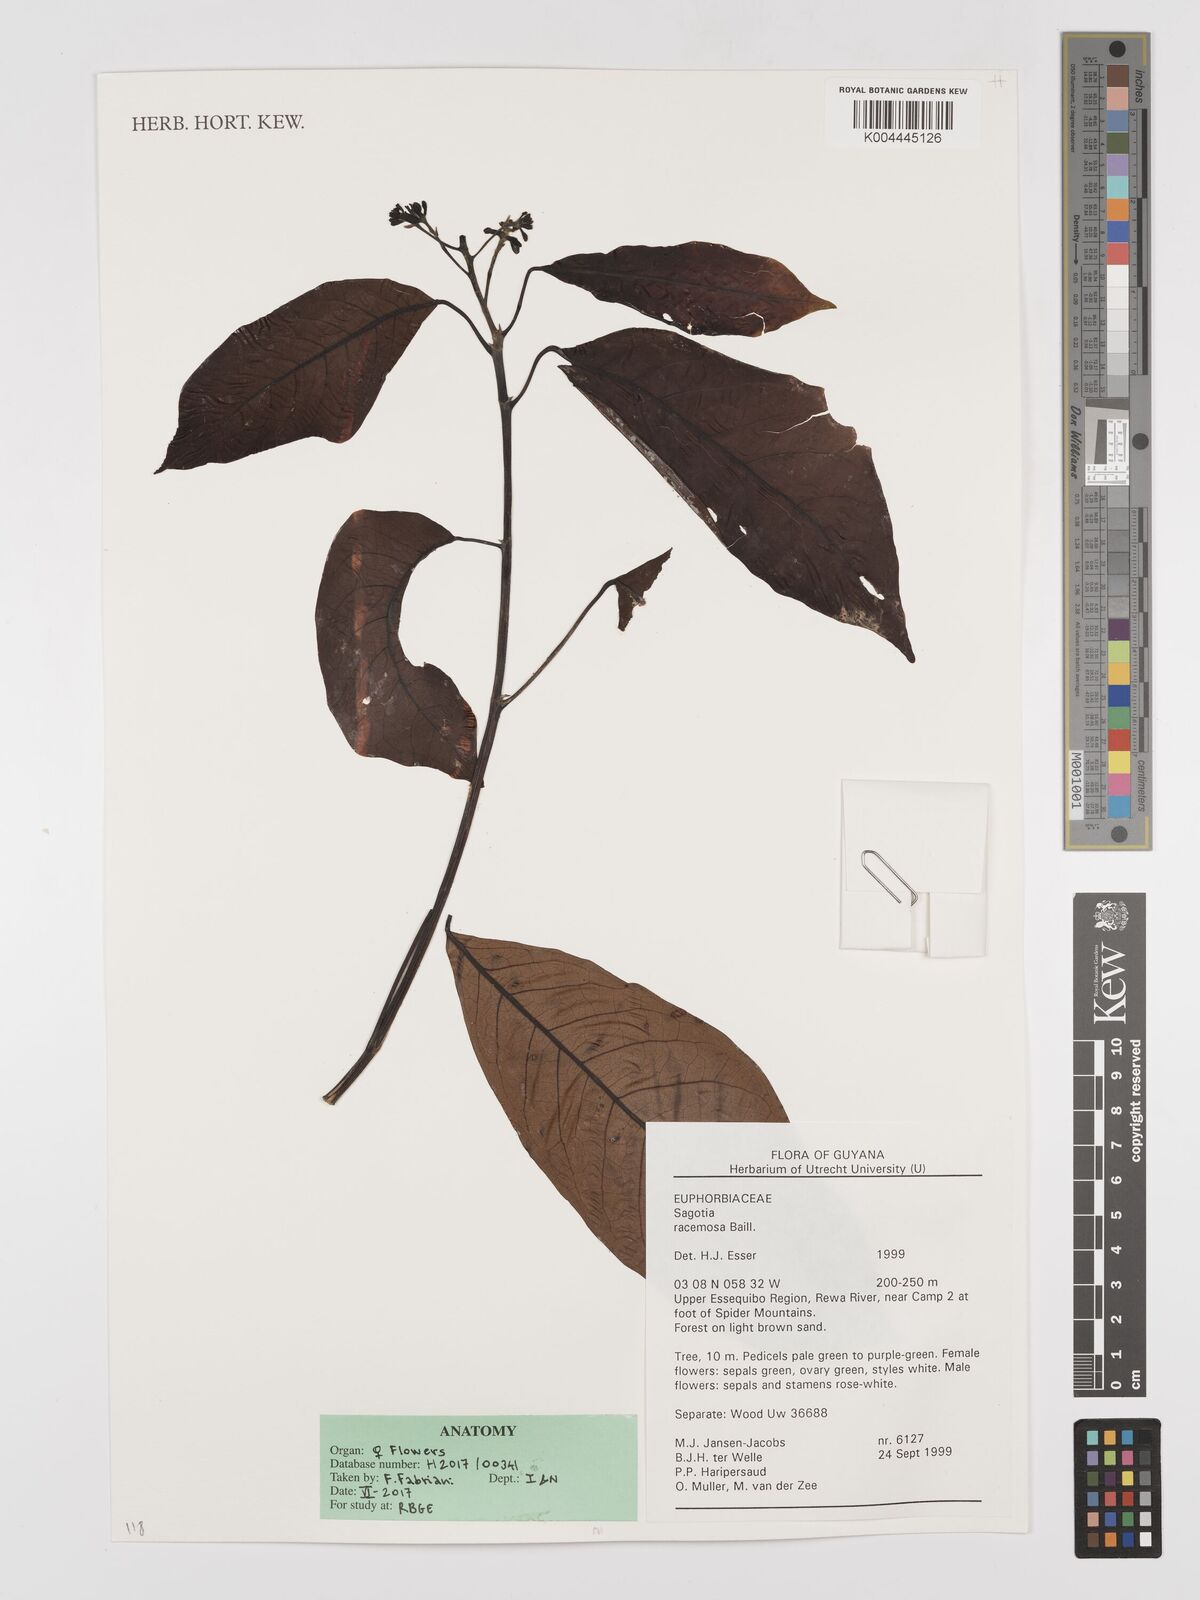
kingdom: Plantae
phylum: Tracheophyta
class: Magnoliopsida
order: Malpighiales
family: Euphorbiaceae
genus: Sagotia
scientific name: Sagotia racemosa
